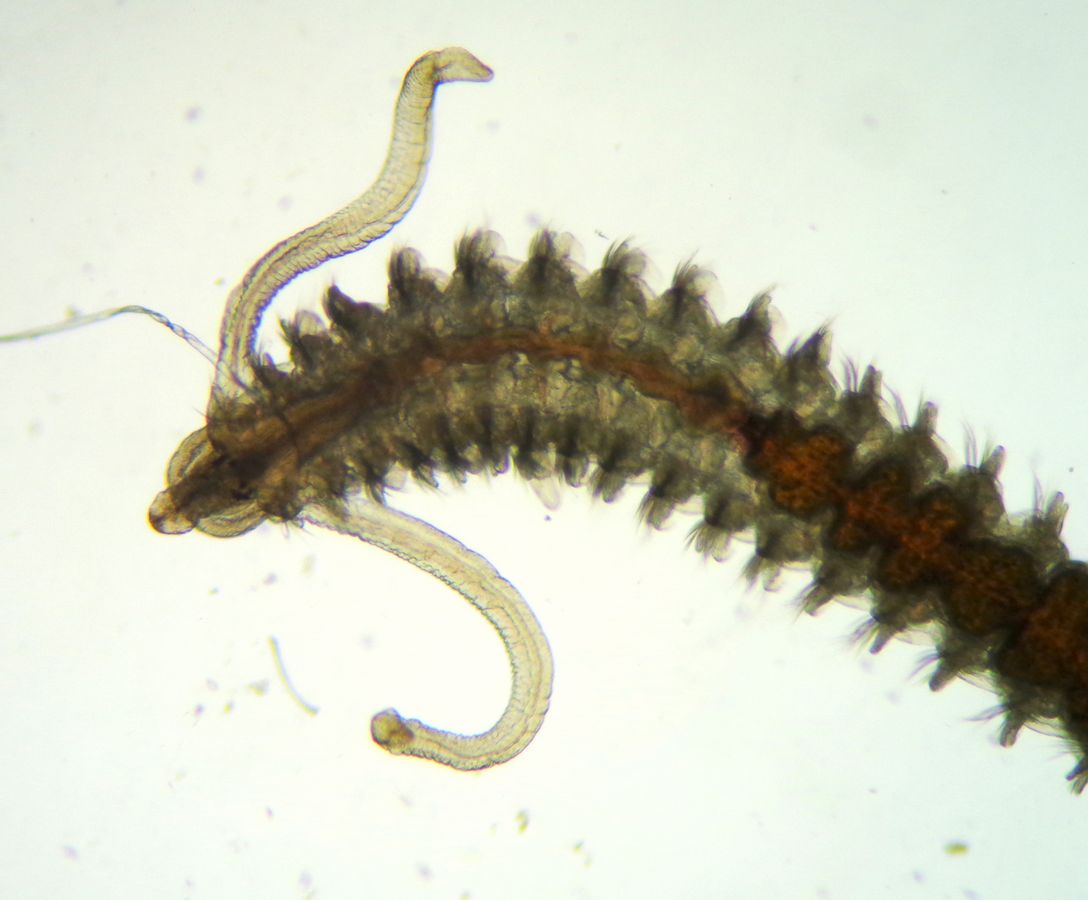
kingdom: Animalia
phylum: Annelida
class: Polychaeta
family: Spionidae
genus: Spio
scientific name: Spio theeli
